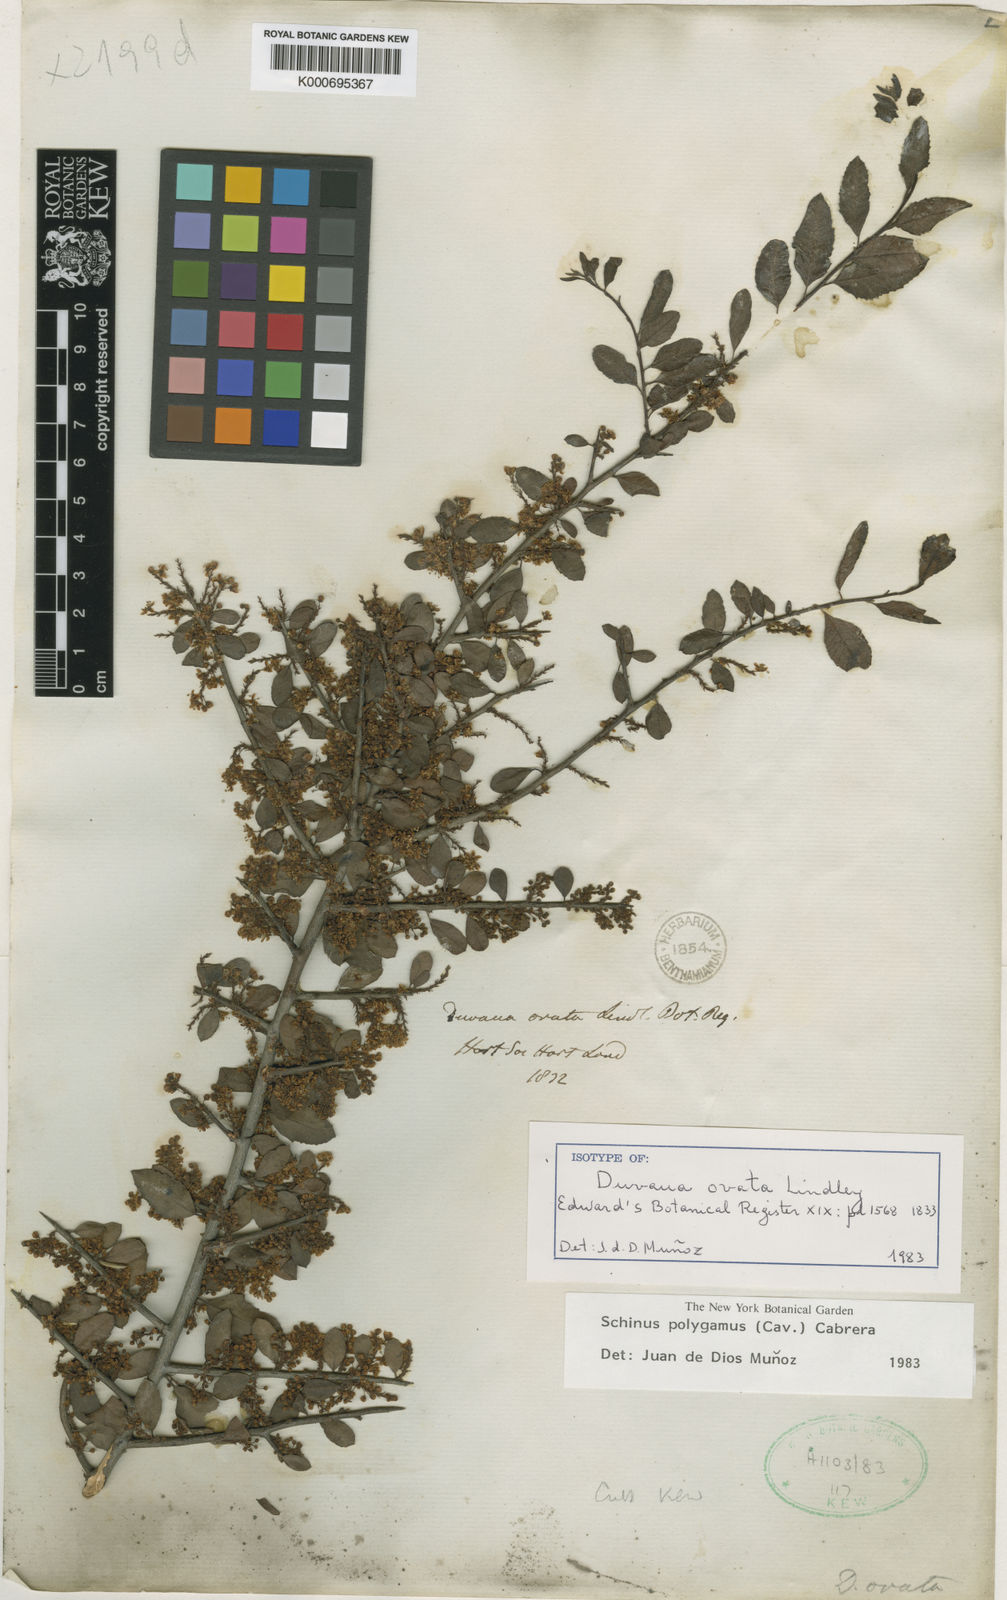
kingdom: Plantae
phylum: Tracheophyta
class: Magnoliopsida
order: Sapindales
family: Anacardiaceae
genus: Schinus
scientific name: Schinus polygama
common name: Hardee peppertree
